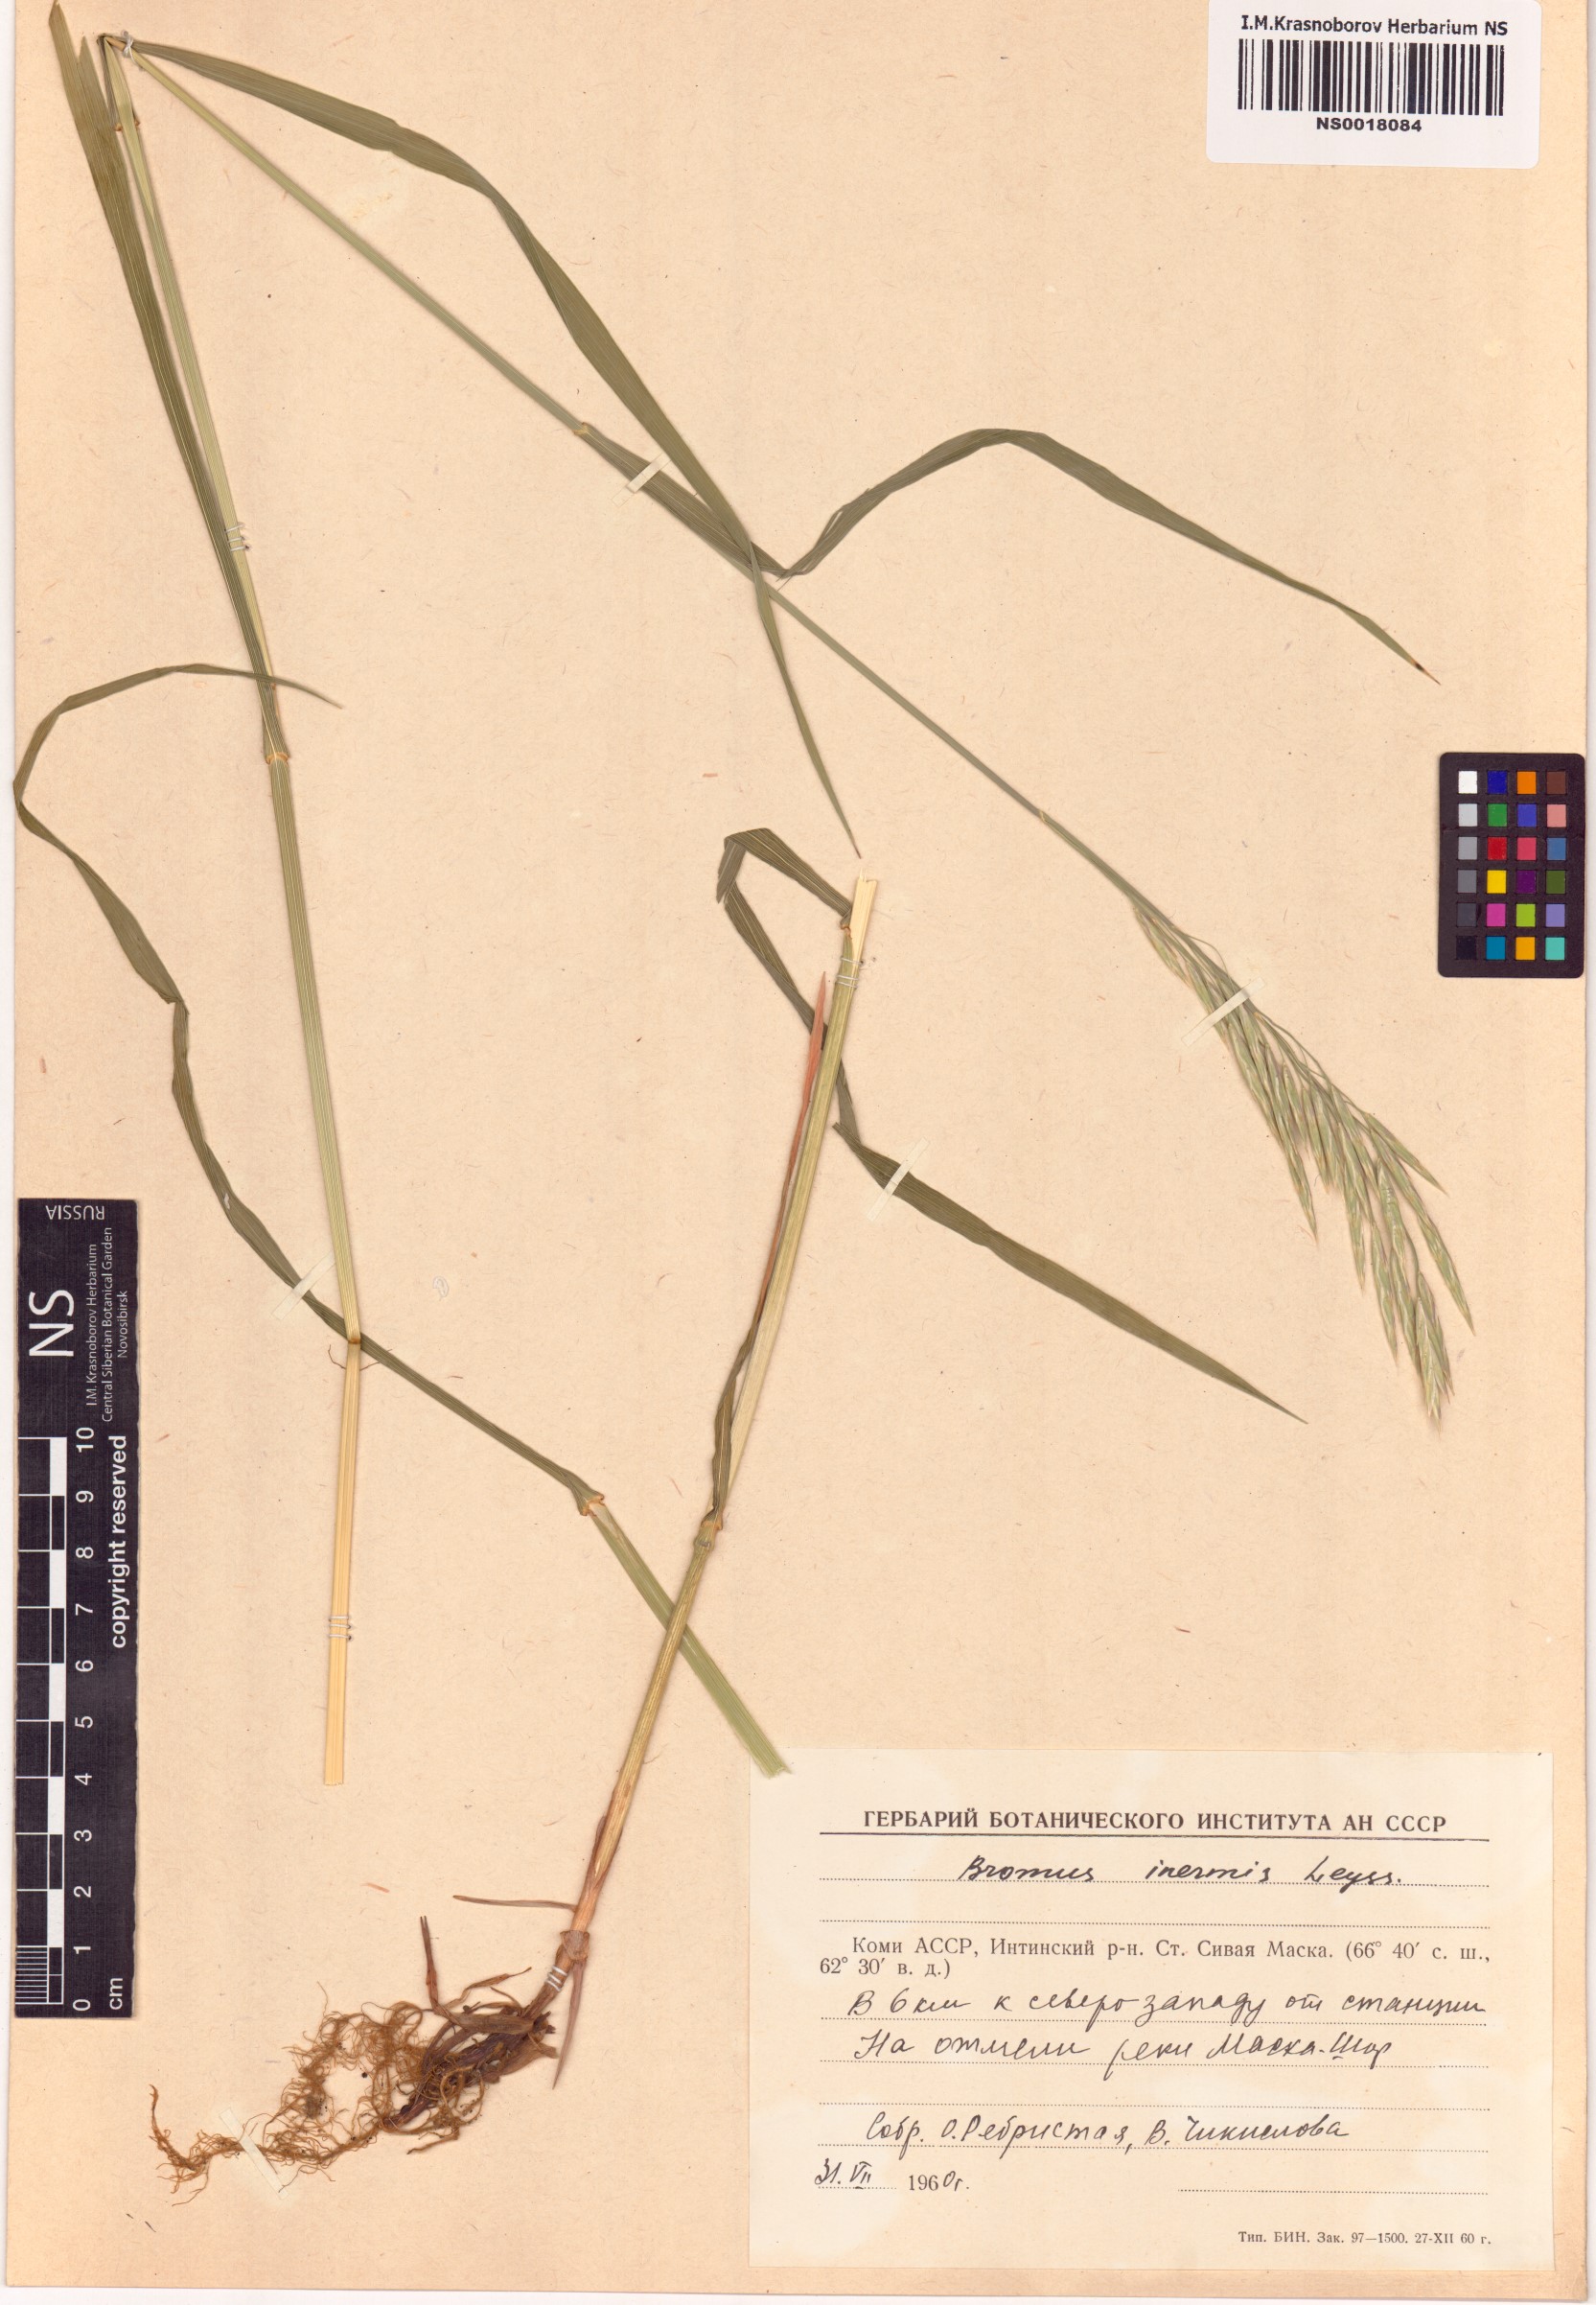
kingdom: Plantae
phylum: Tracheophyta
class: Liliopsida
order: Poales
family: Poaceae
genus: Bromus
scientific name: Bromus inermis
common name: Smooth brome
